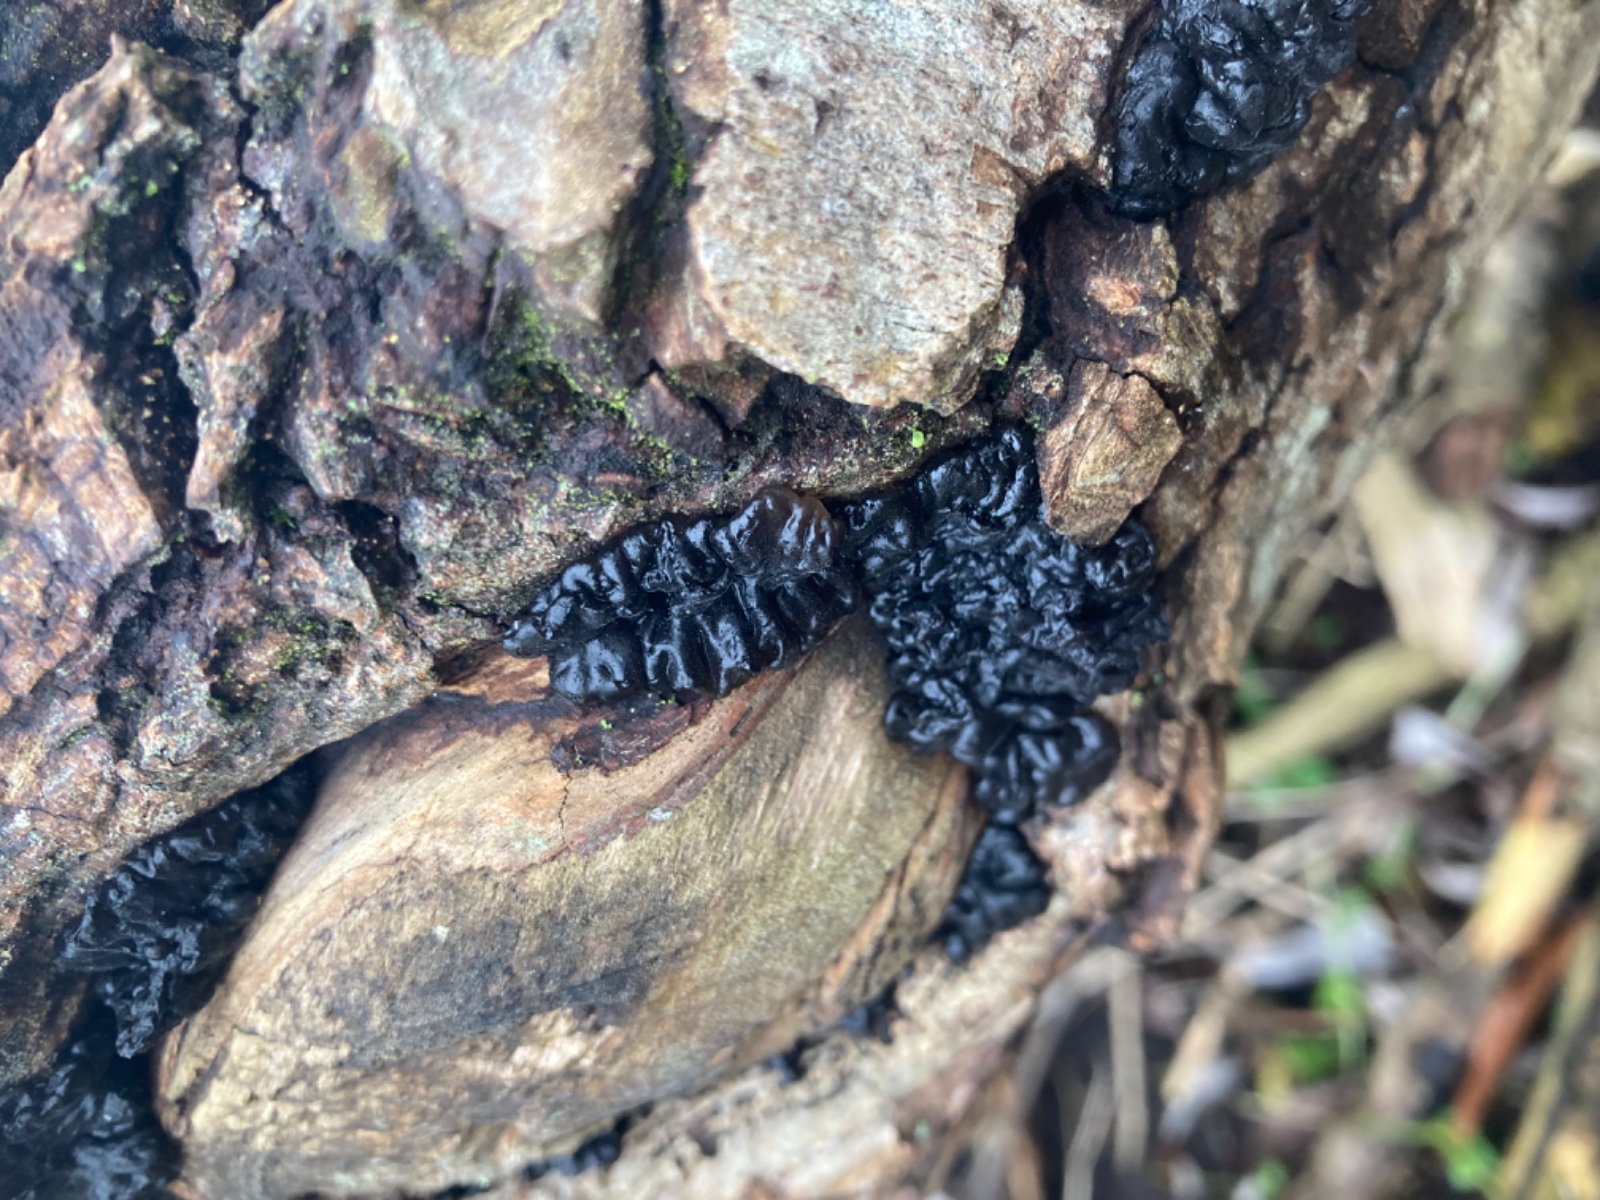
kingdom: Fungi
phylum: Basidiomycota
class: Agaricomycetes
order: Auriculariales
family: Auriculariaceae
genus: Exidia
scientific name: Exidia nigricans
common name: almindelig bævretop
